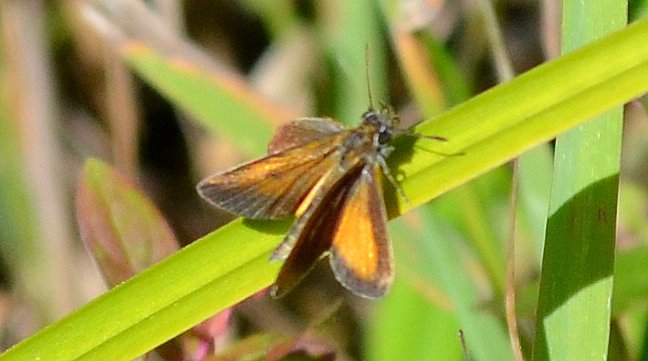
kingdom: Animalia
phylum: Arthropoda
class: Insecta
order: Lepidoptera
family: Hesperiidae
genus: Ancyloxypha
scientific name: Ancyloxypha numitor
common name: Least Skipper
